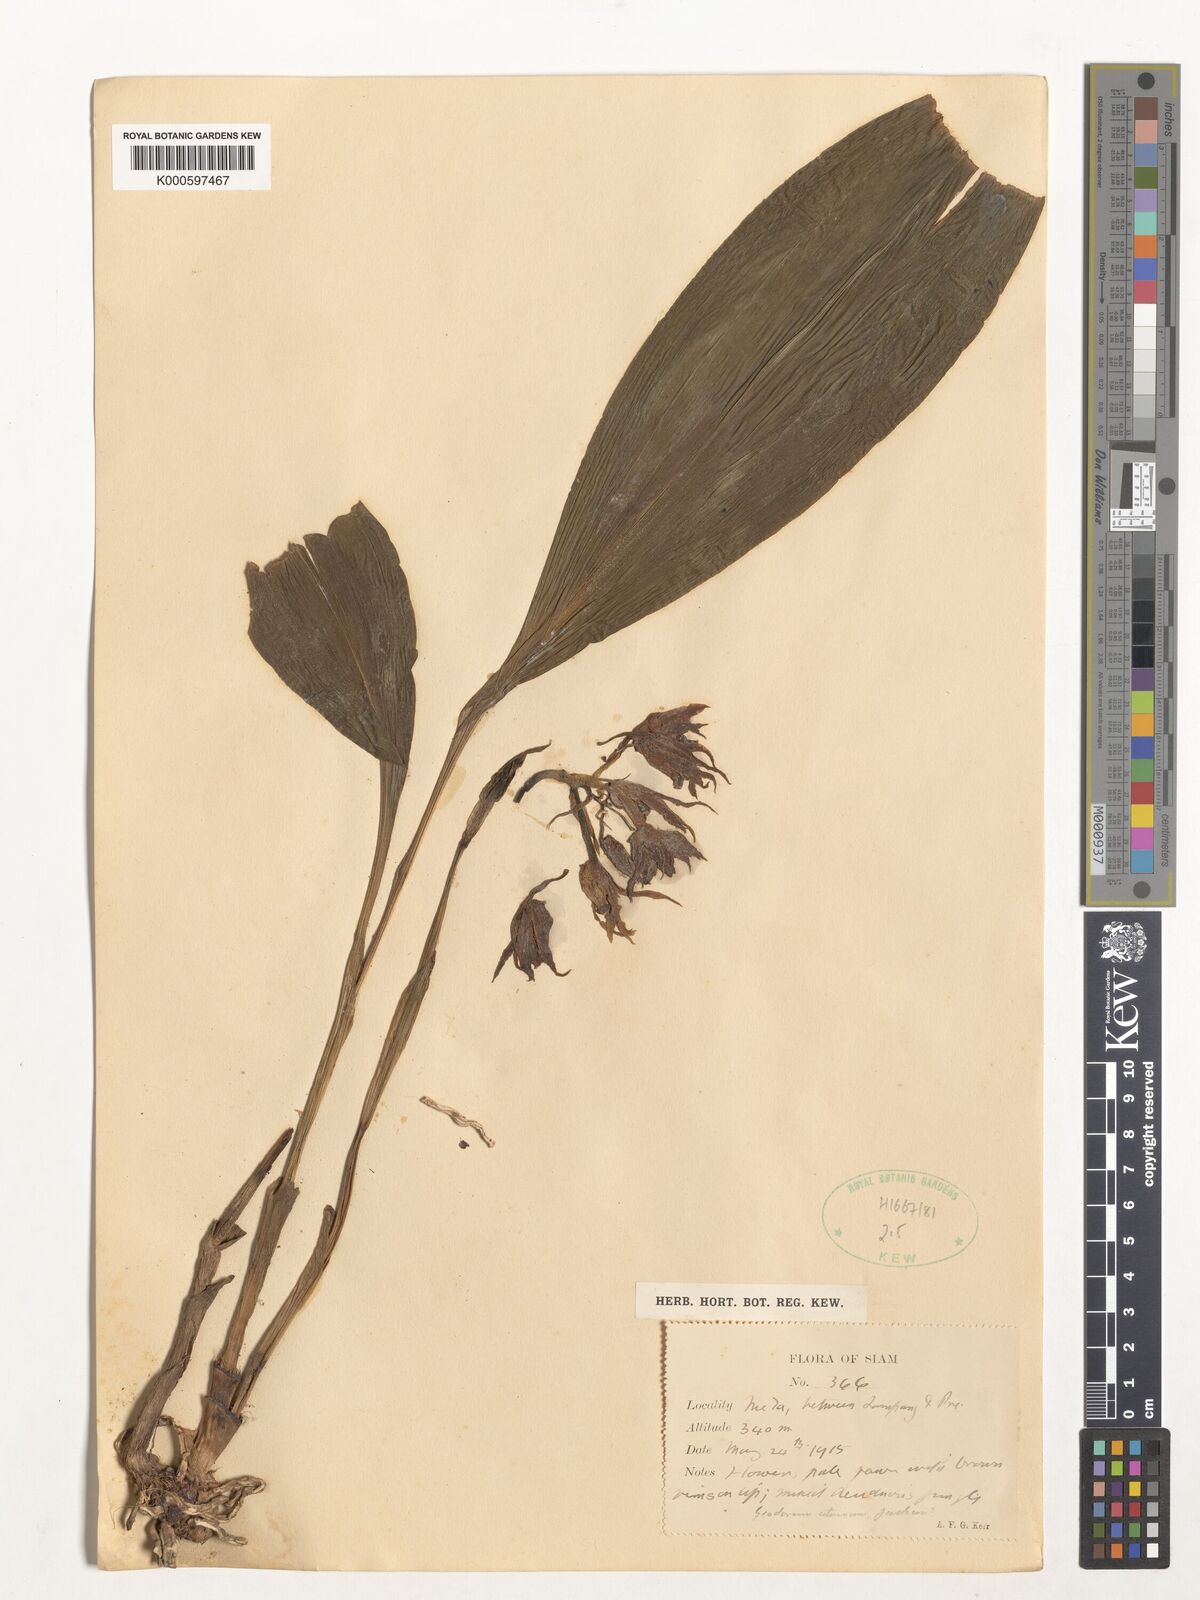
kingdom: Plantae
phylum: Tracheophyta
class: Liliopsida
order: Asparagales
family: Orchidaceae
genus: Geodorum
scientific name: Geodorum
